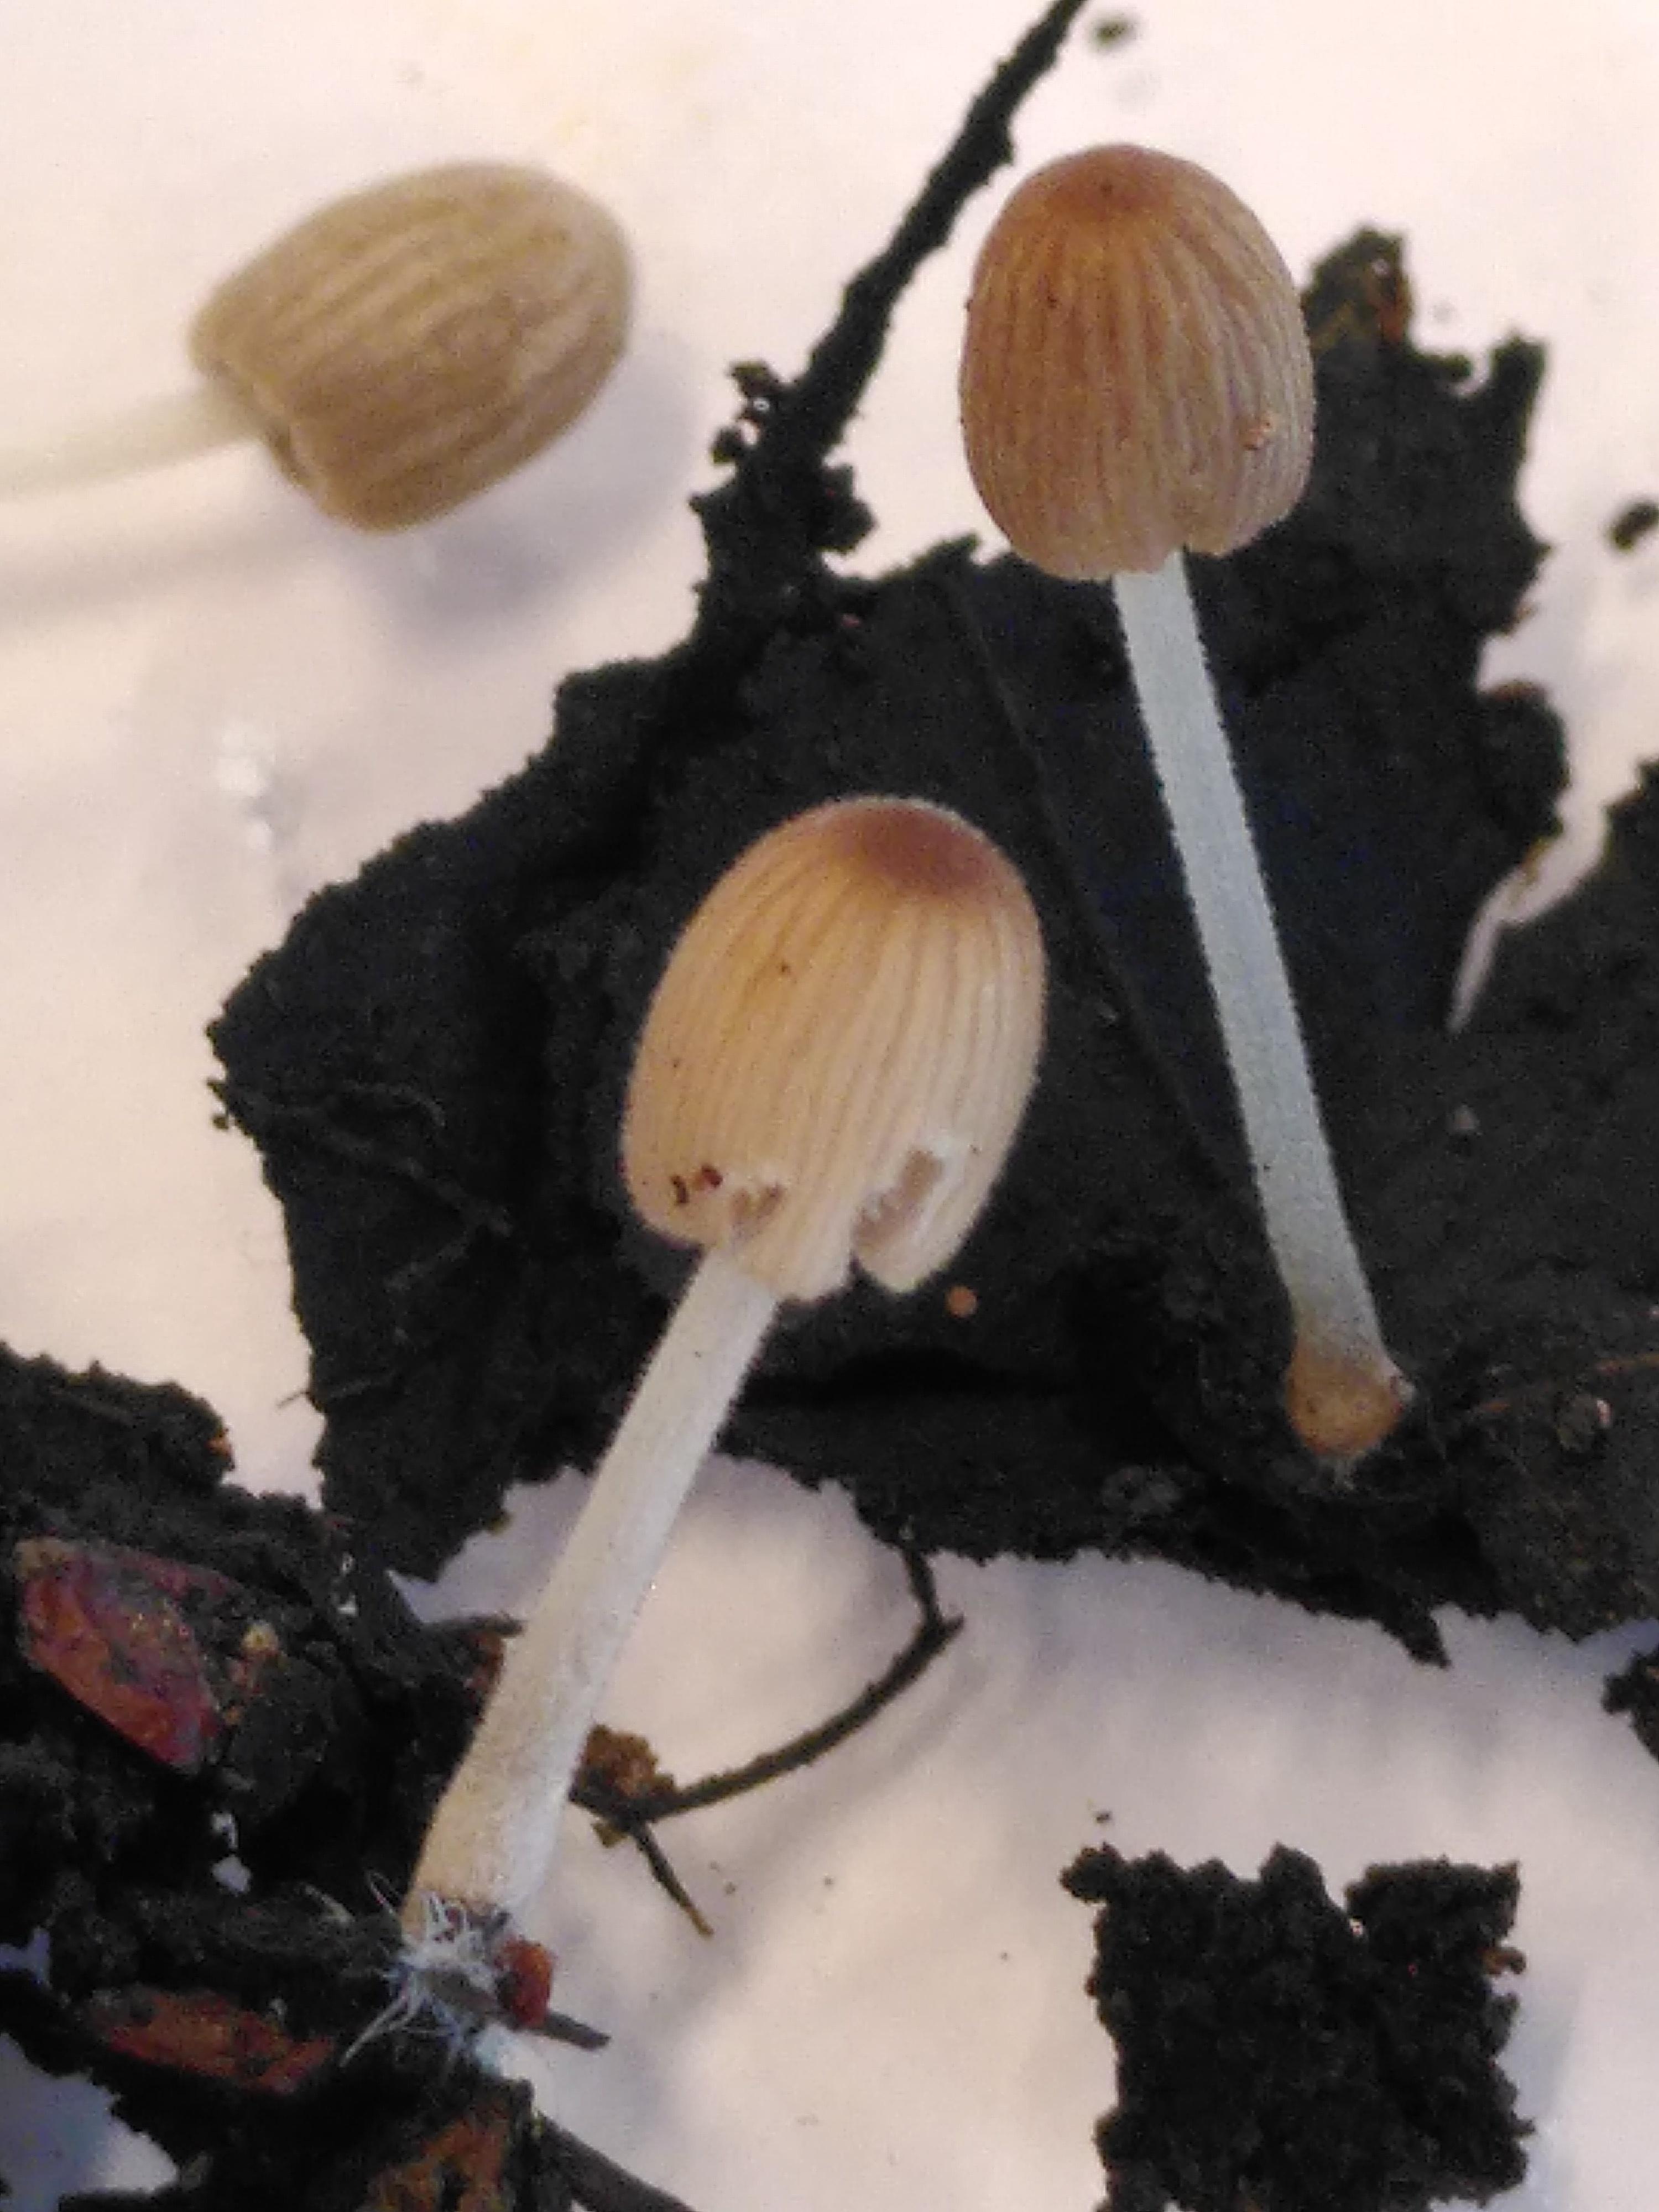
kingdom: Fungi
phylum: Basidiomycota
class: Agaricomycetes
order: Agaricales
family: Psathyrellaceae
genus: Tulosesus
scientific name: Tulosesus
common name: blækhat
